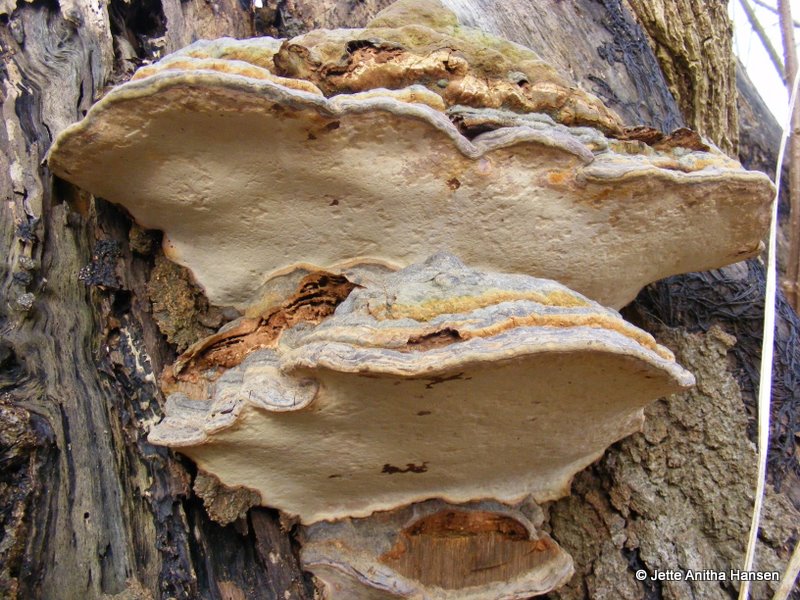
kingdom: Fungi
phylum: Basidiomycota
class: Agaricomycetes
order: Polyporales
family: Polyporaceae
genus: Ganoderma
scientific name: Ganoderma pfeifferi
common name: kobberrød lakporesvamp
